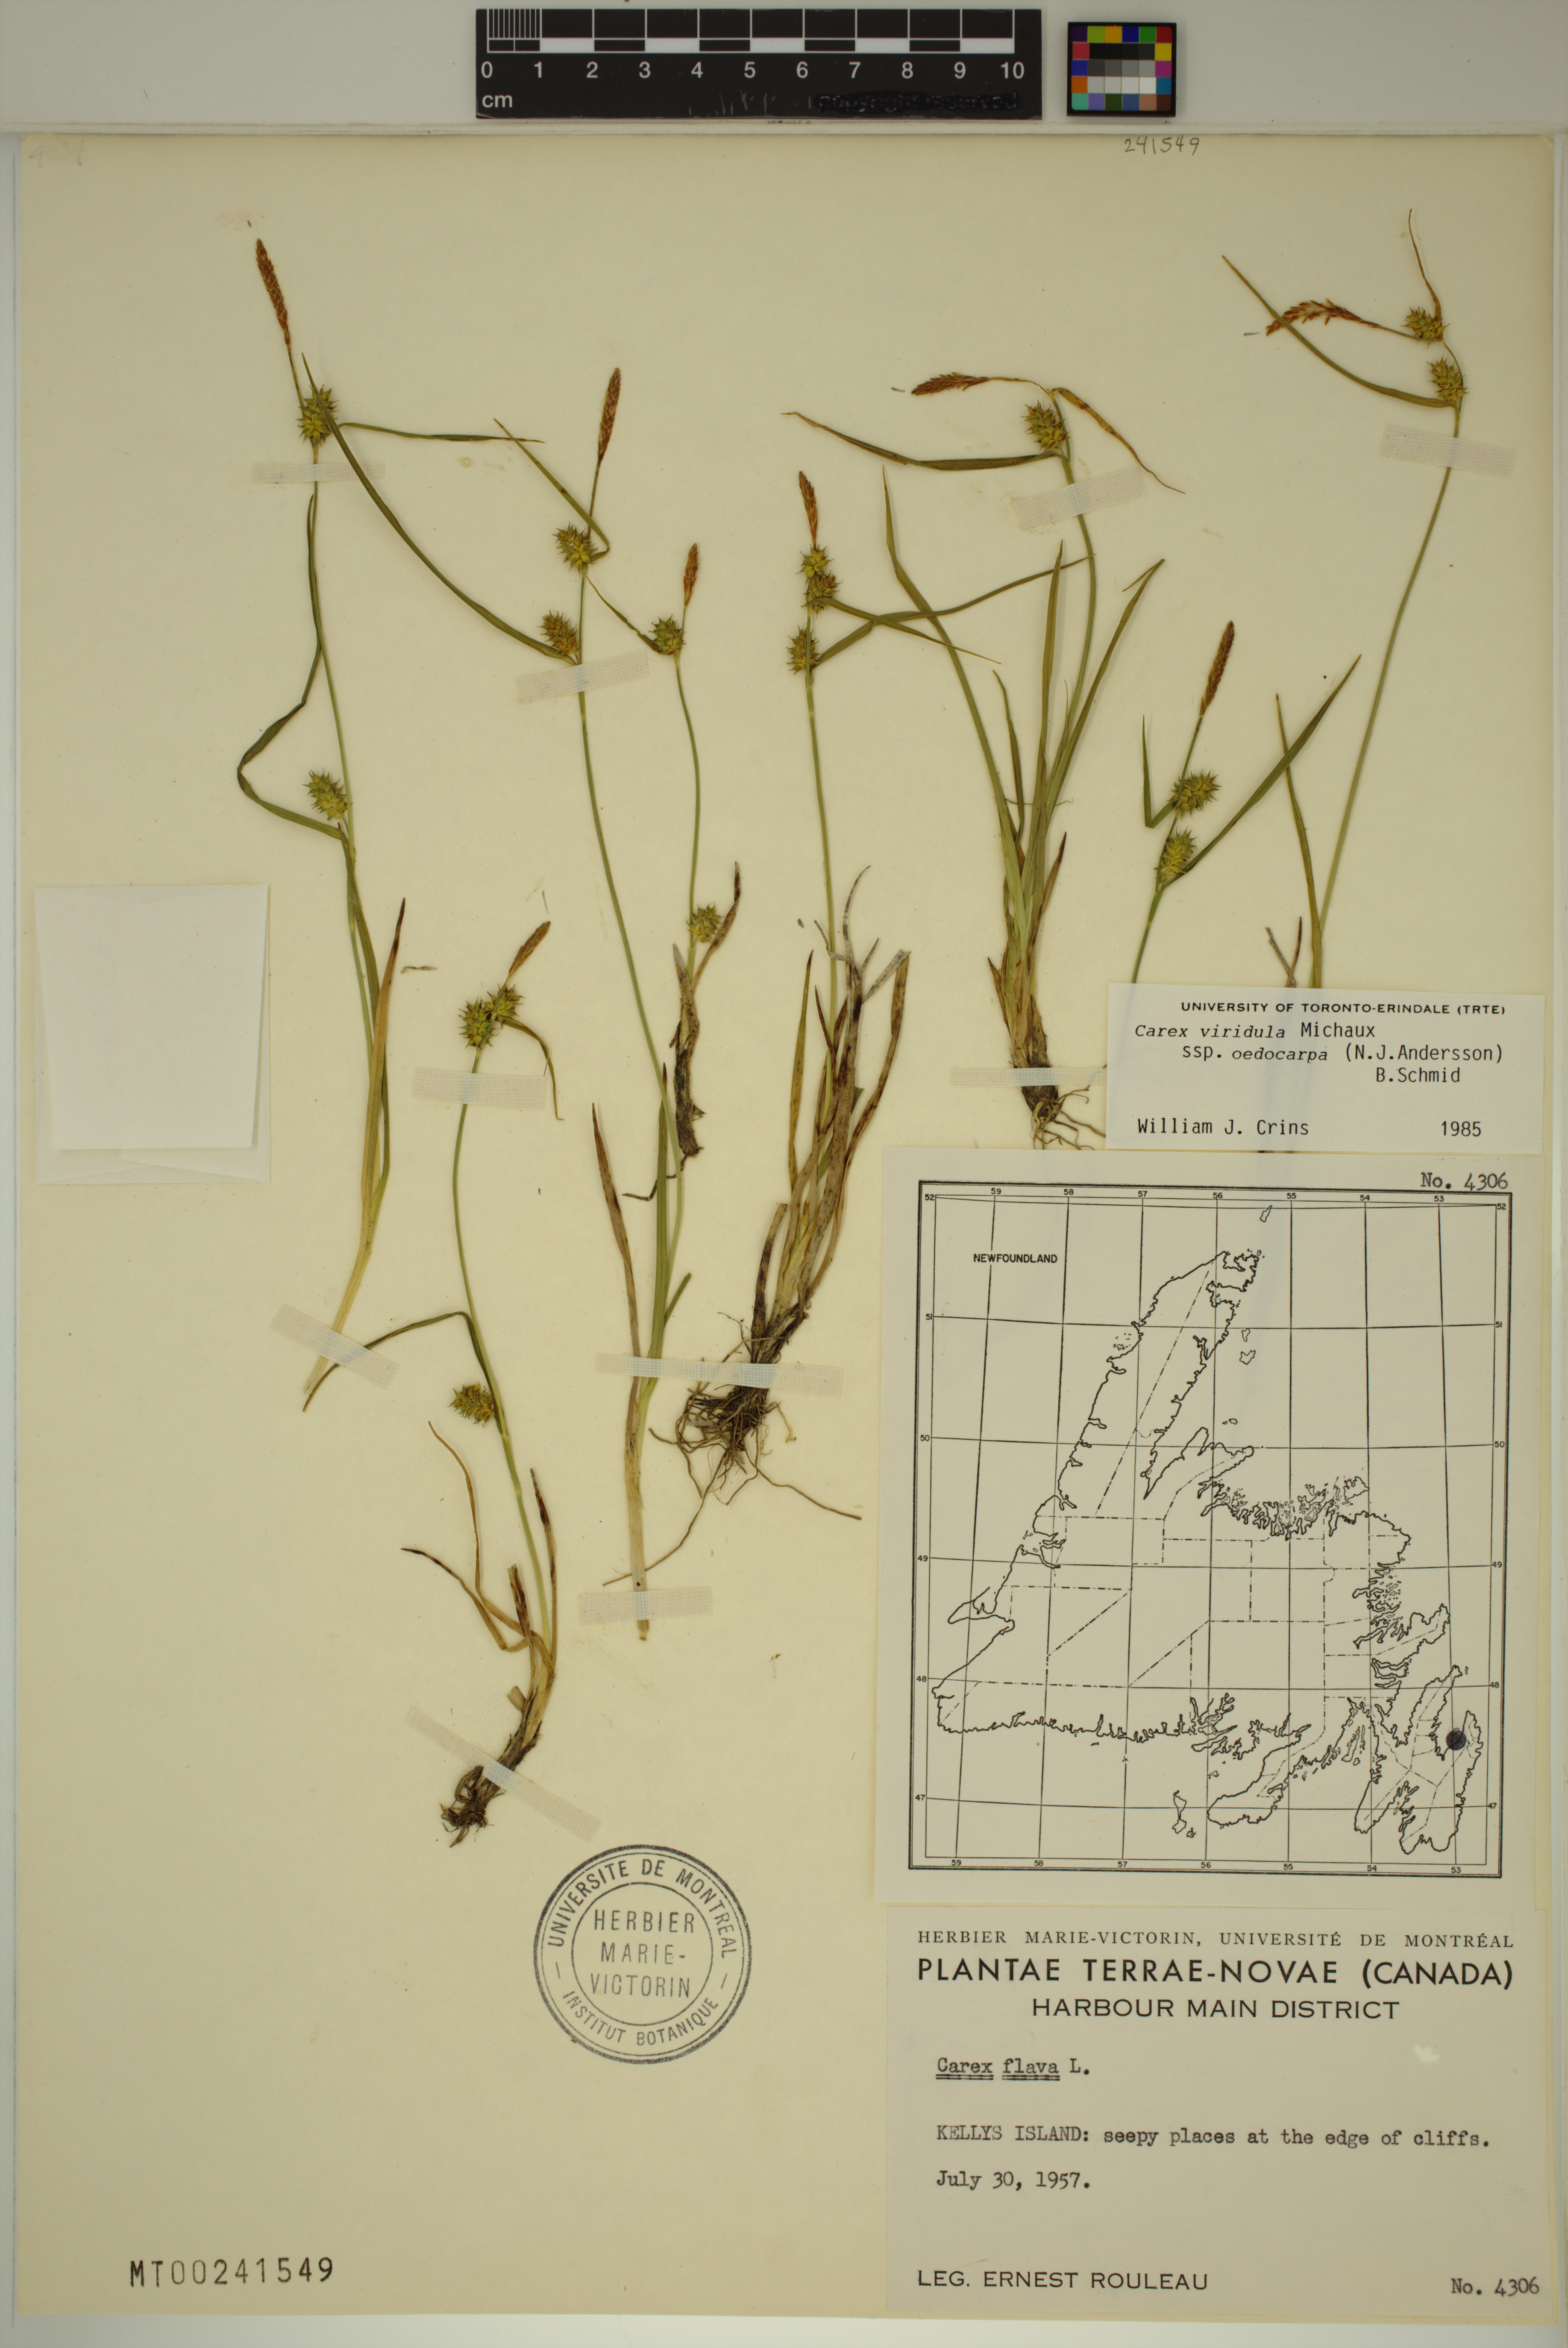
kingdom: Plantae
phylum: Tracheophyta
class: Liliopsida
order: Poales
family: Cyperaceae
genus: Carex
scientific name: Carex demissa
